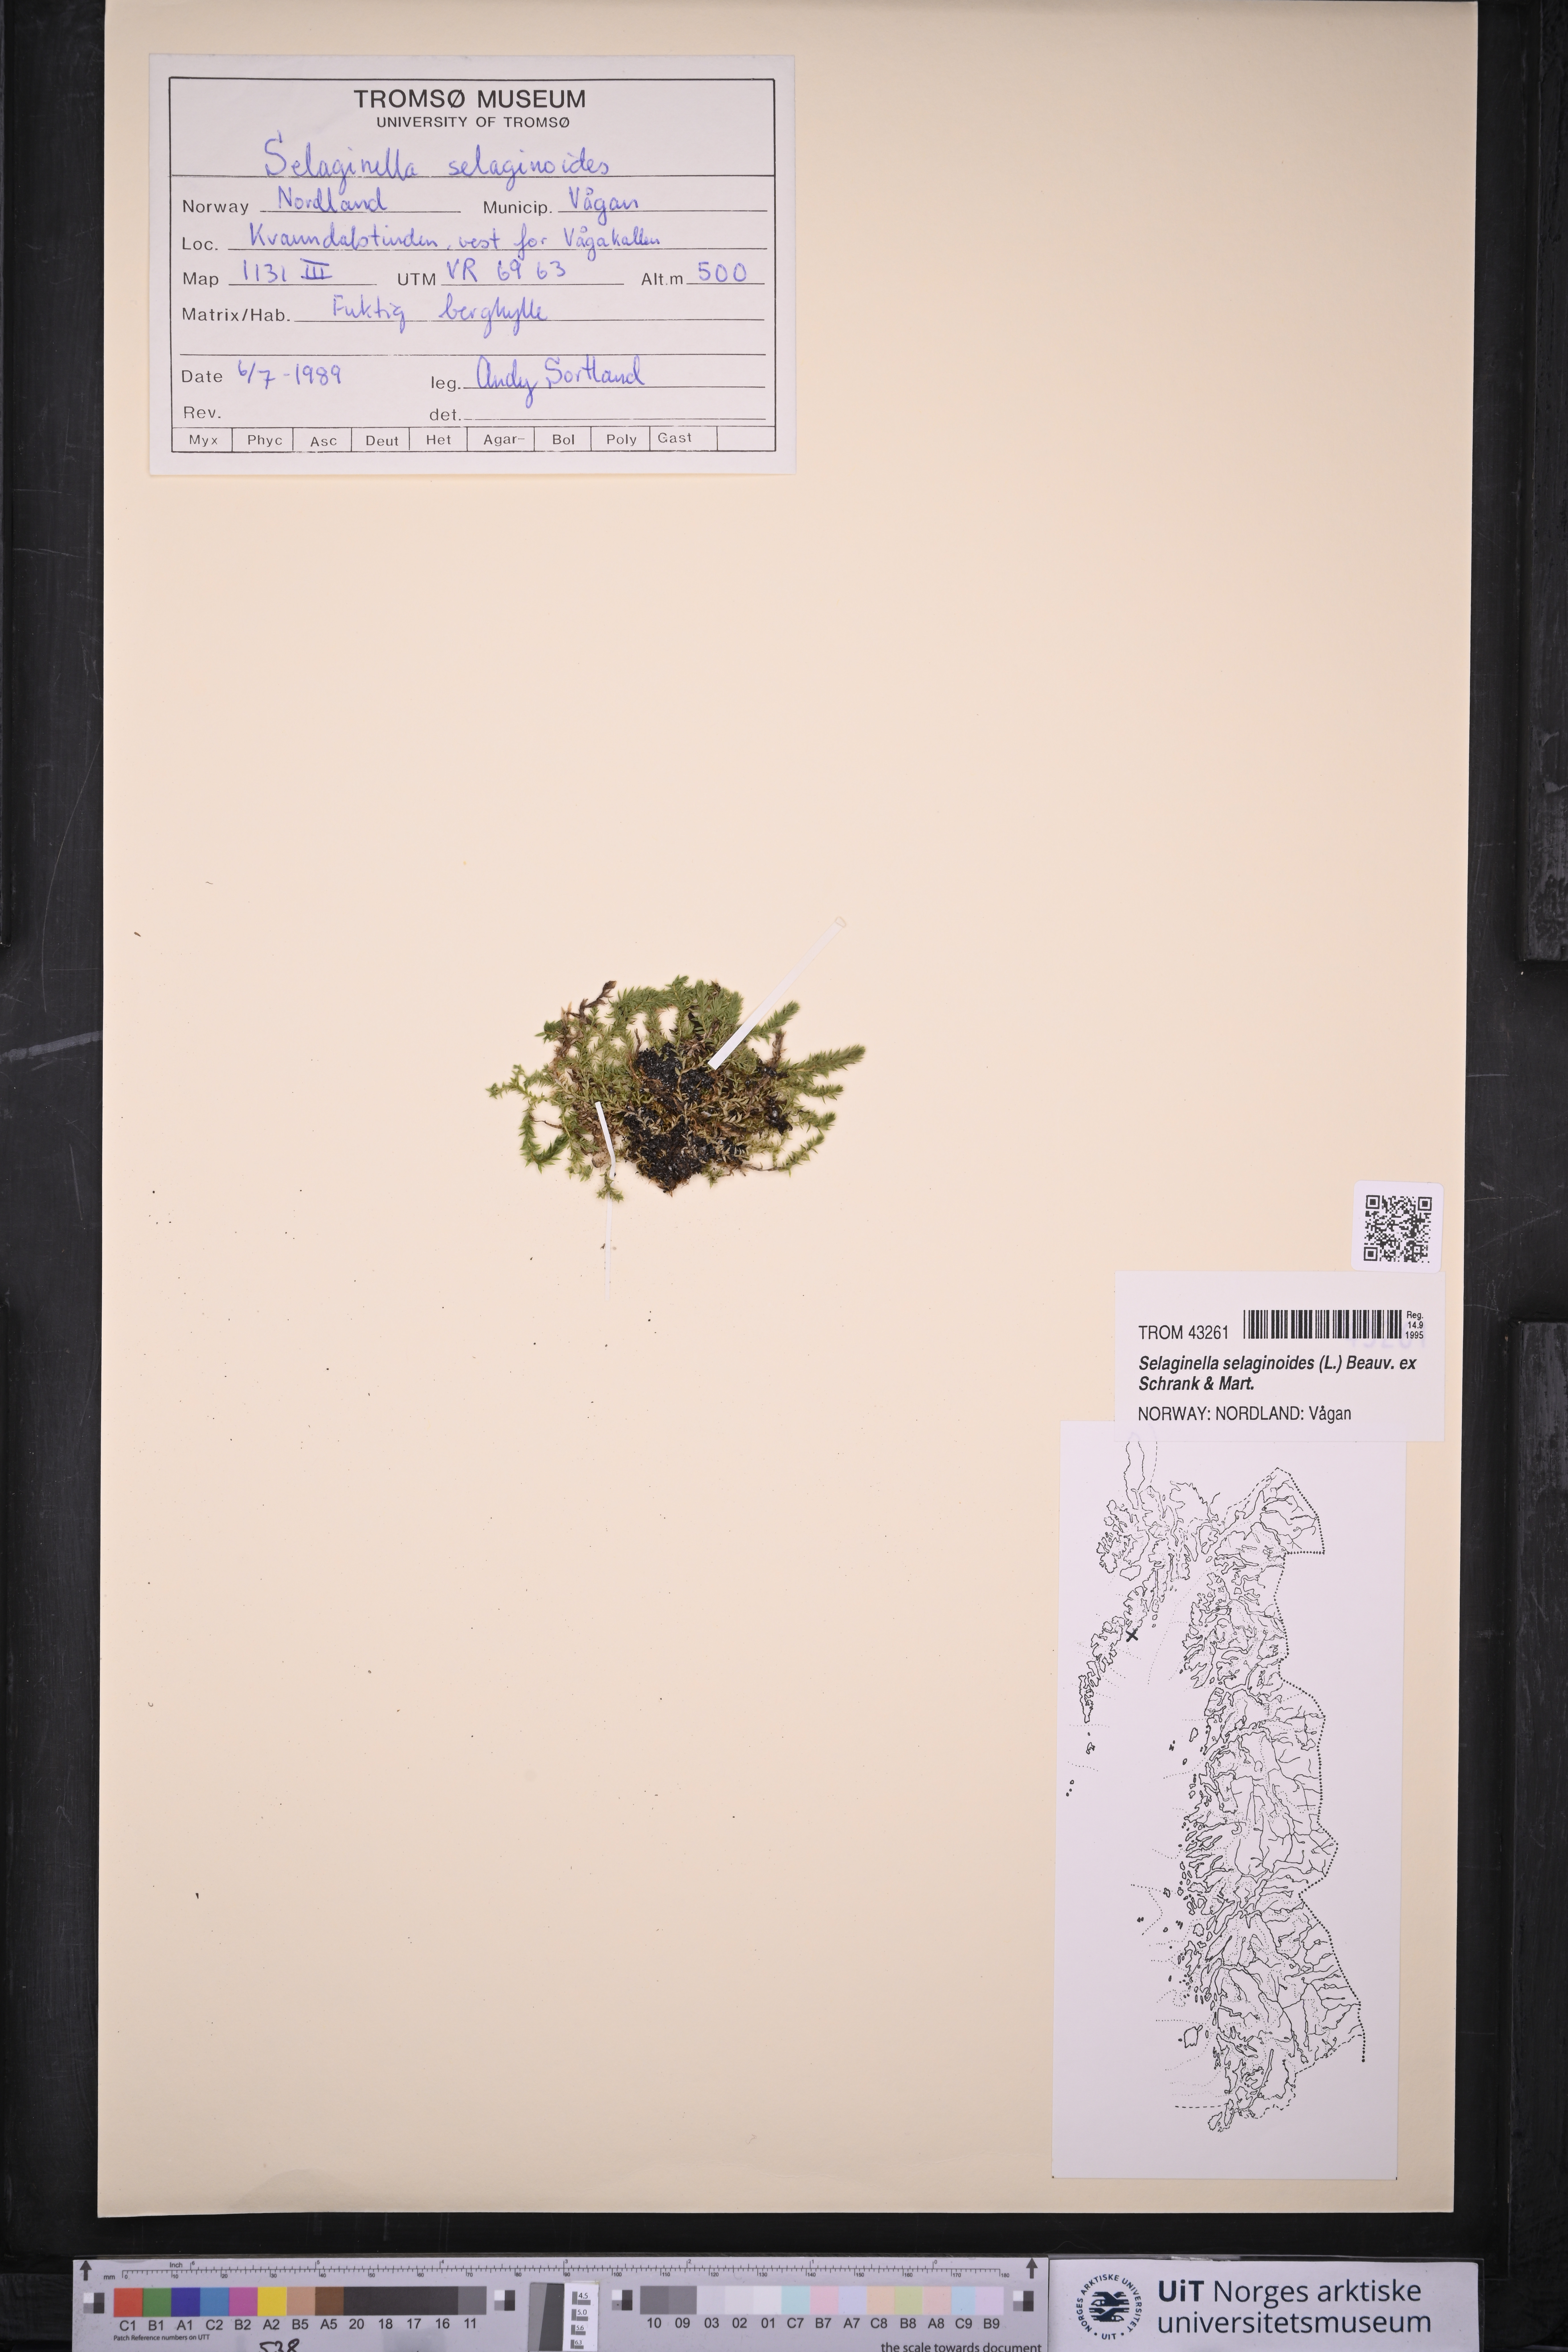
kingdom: Plantae
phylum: Tracheophyta
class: Lycopodiopsida
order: Selaginellales
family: Selaginellaceae
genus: Selaginella
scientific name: Selaginella selaginoides
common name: Prickly mountain-moss
